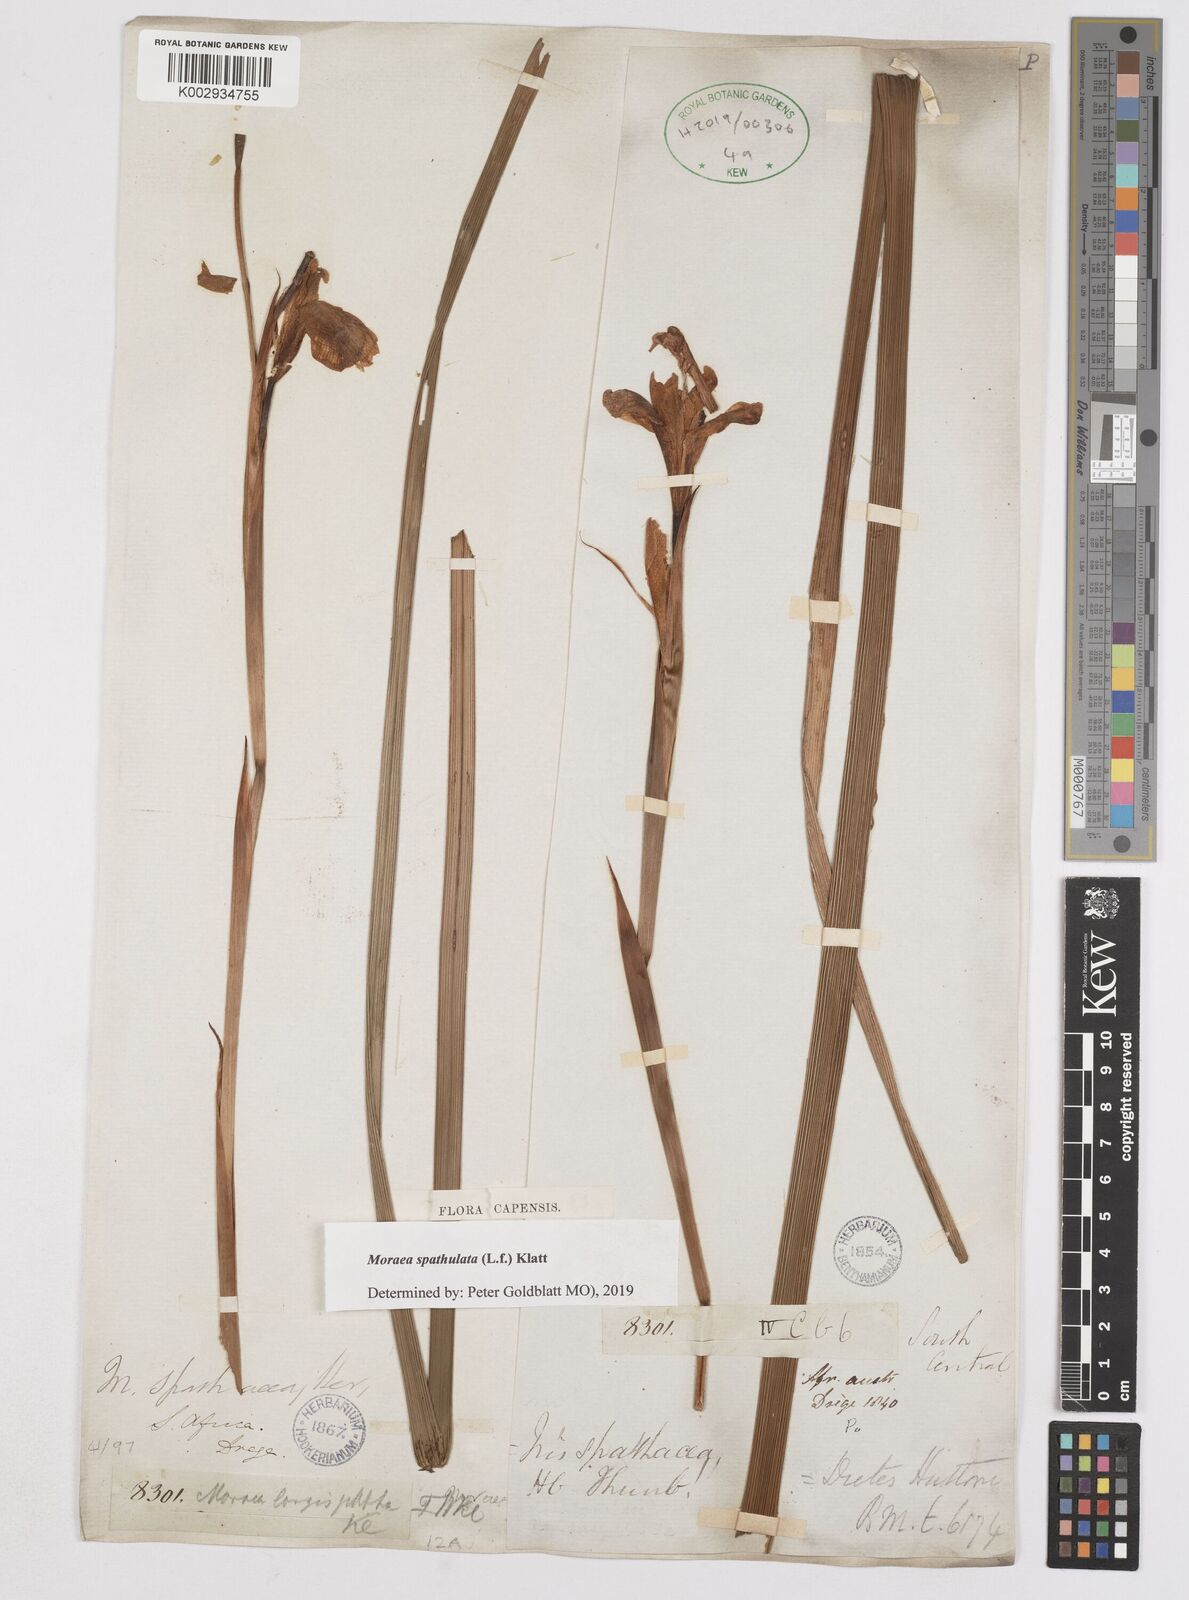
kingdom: Plantae
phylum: Tracheophyta
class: Liliopsida
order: Asparagales
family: Iridaceae
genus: Moraea
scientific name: Moraea spathulata
